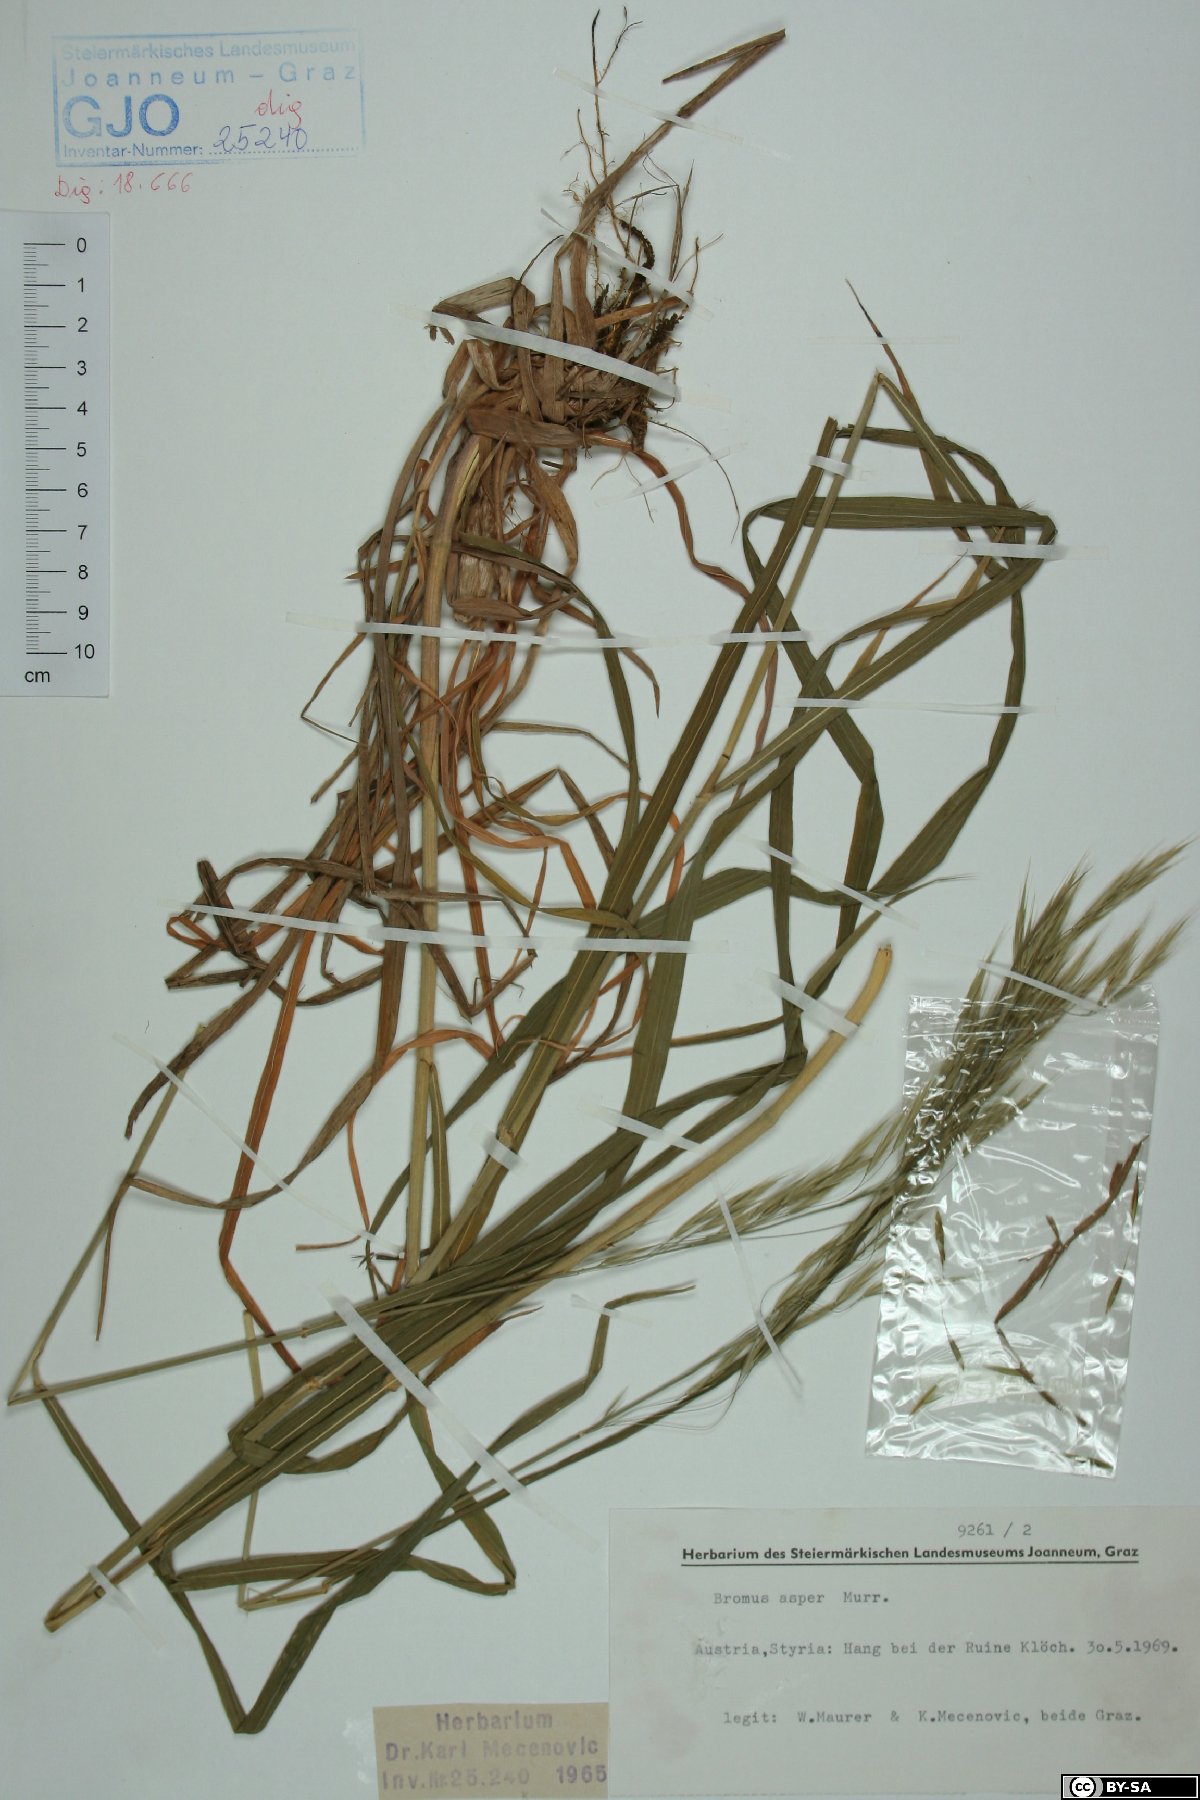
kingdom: Plantae
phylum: Tracheophyta
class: Liliopsida
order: Poales
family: Poaceae
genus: Bromus
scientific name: Bromus ramosus
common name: Hairy brome
